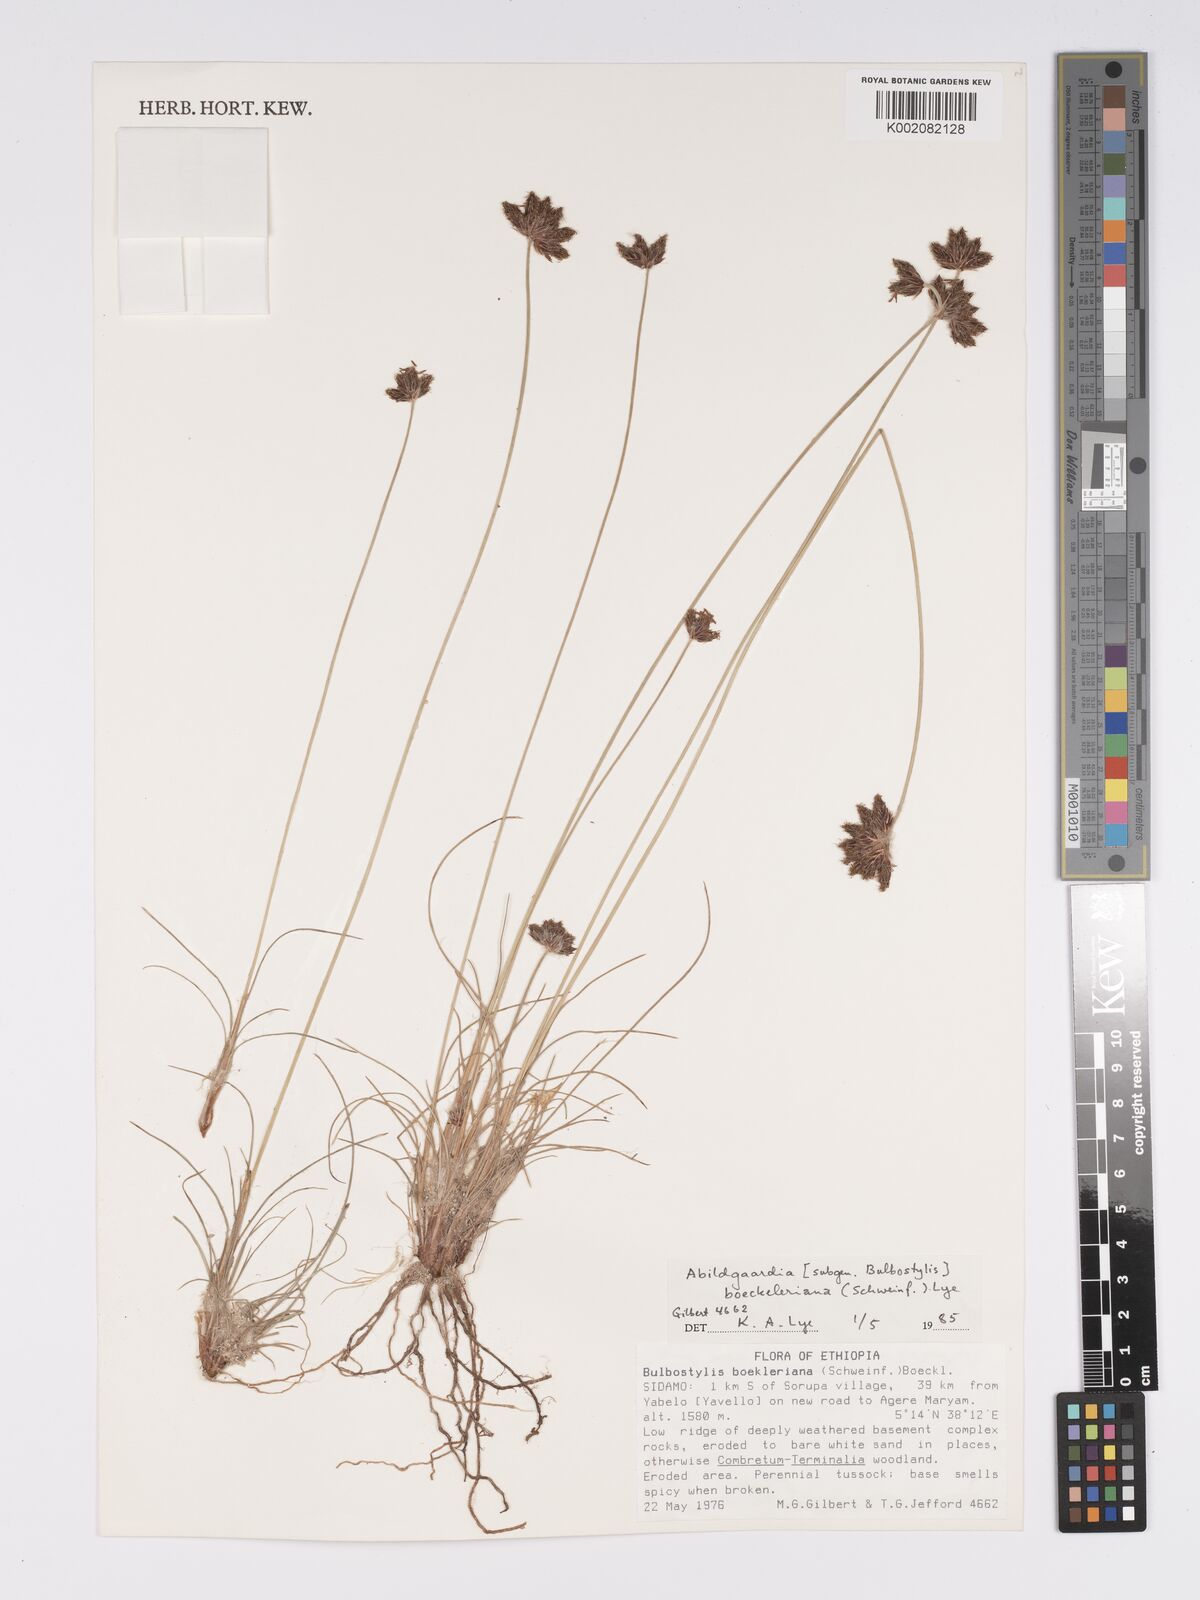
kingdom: Plantae
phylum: Tracheophyta
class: Liliopsida
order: Poales
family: Cyperaceae
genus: Bulbostylis
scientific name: Bulbostylis boeckeleriana
